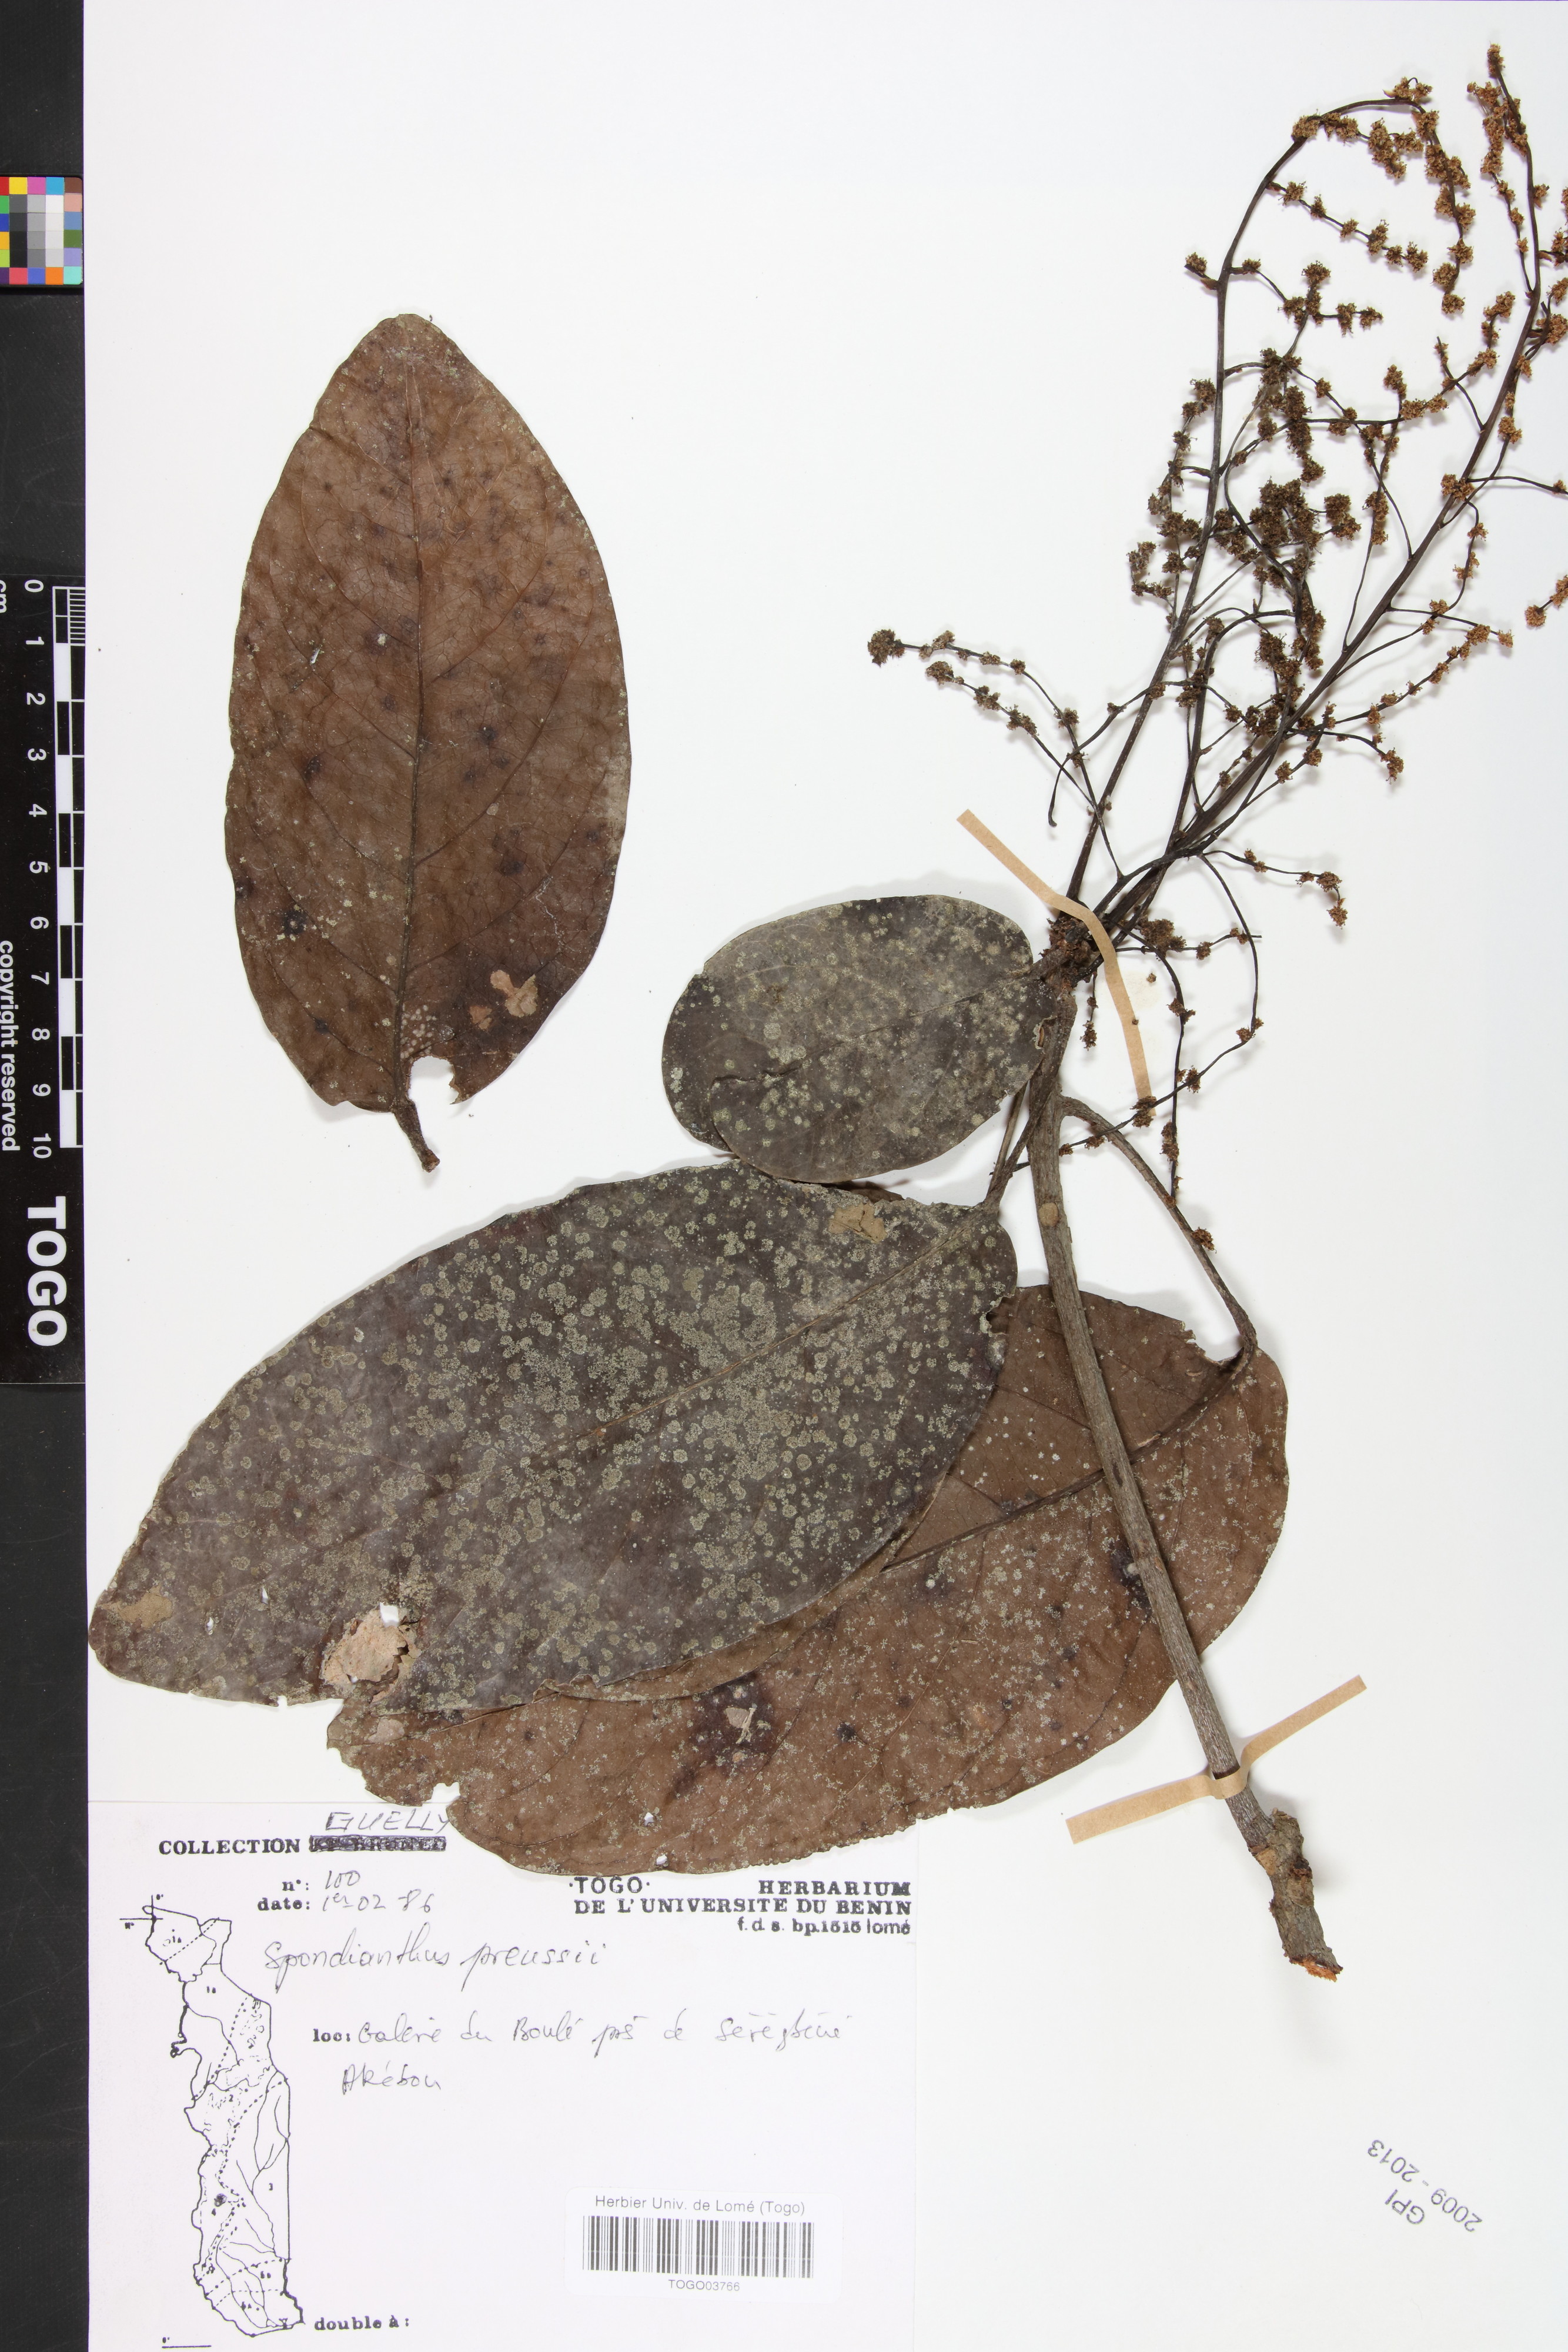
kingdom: Plantae
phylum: Tracheophyta
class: Magnoliopsida
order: Malpighiales
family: Phyllanthaceae
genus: Spondianthus
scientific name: Spondianthus preussii
